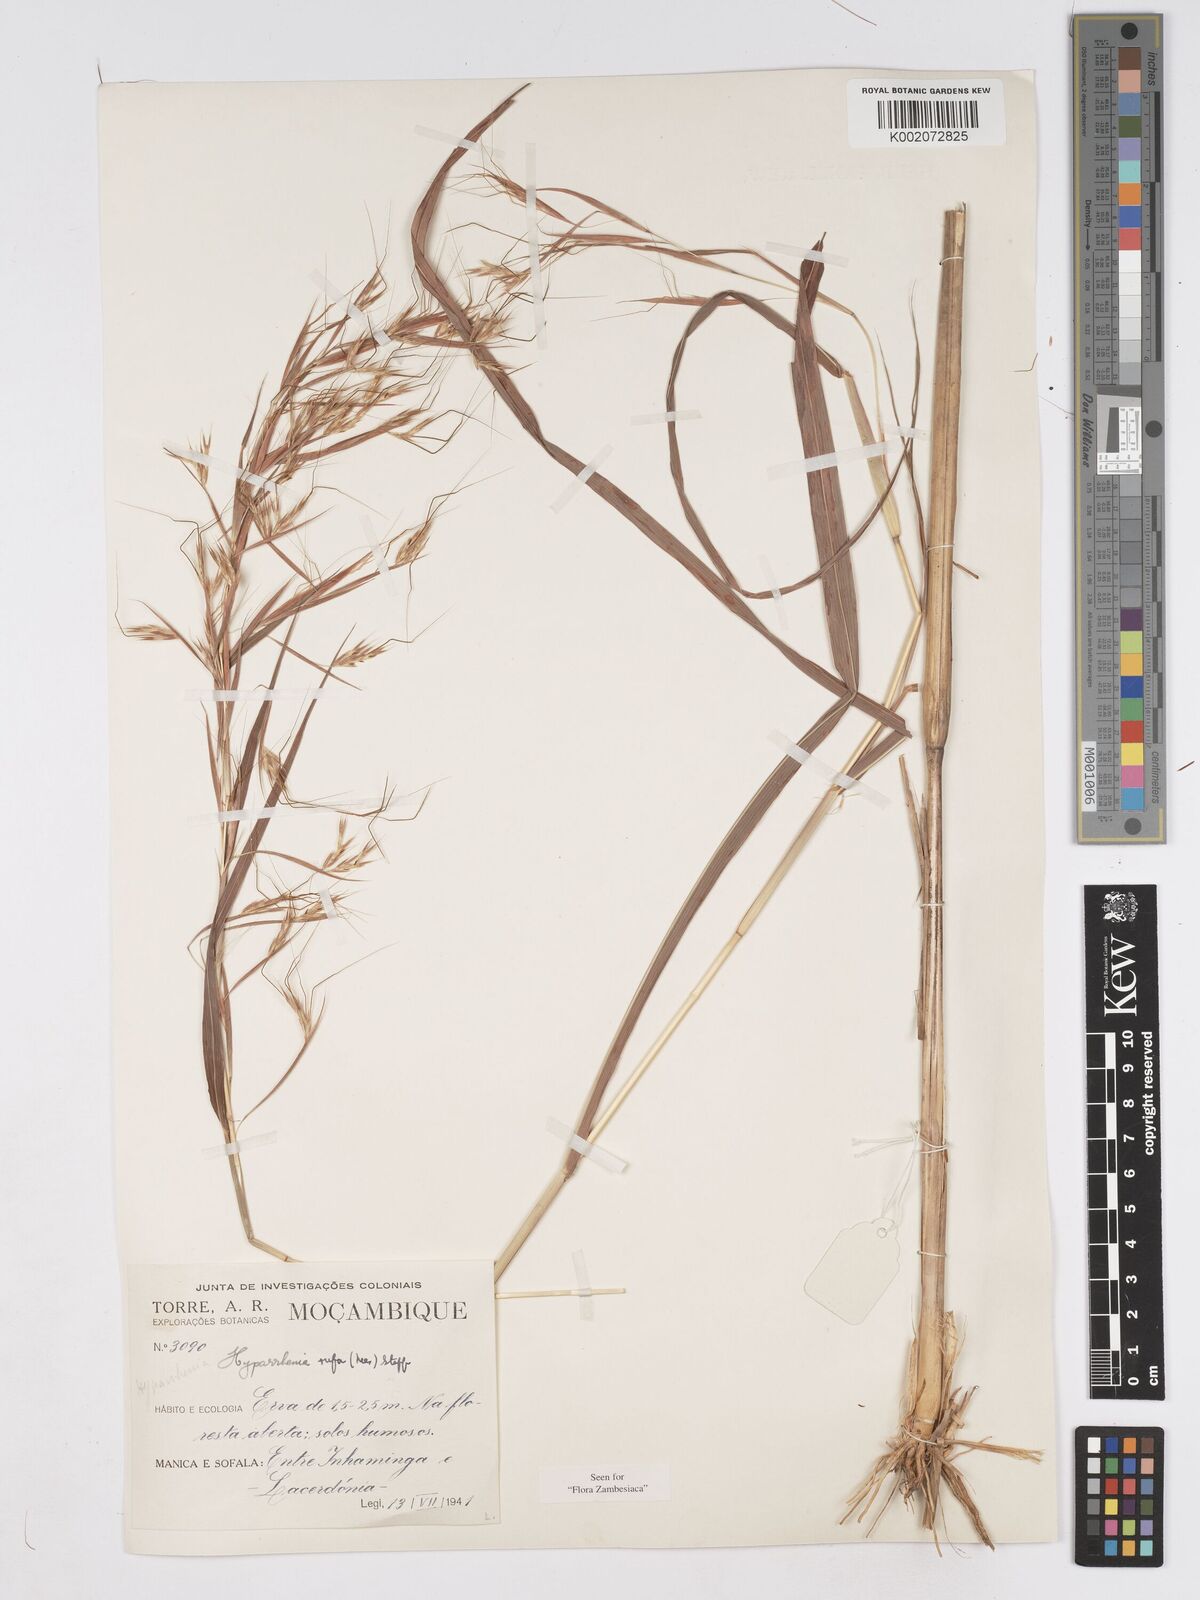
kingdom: Plantae
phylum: Tracheophyta
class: Liliopsida
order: Poales
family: Poaceae
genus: Hyparrhenia
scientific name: Hyparrhenia rufa
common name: Jaraguagrass
